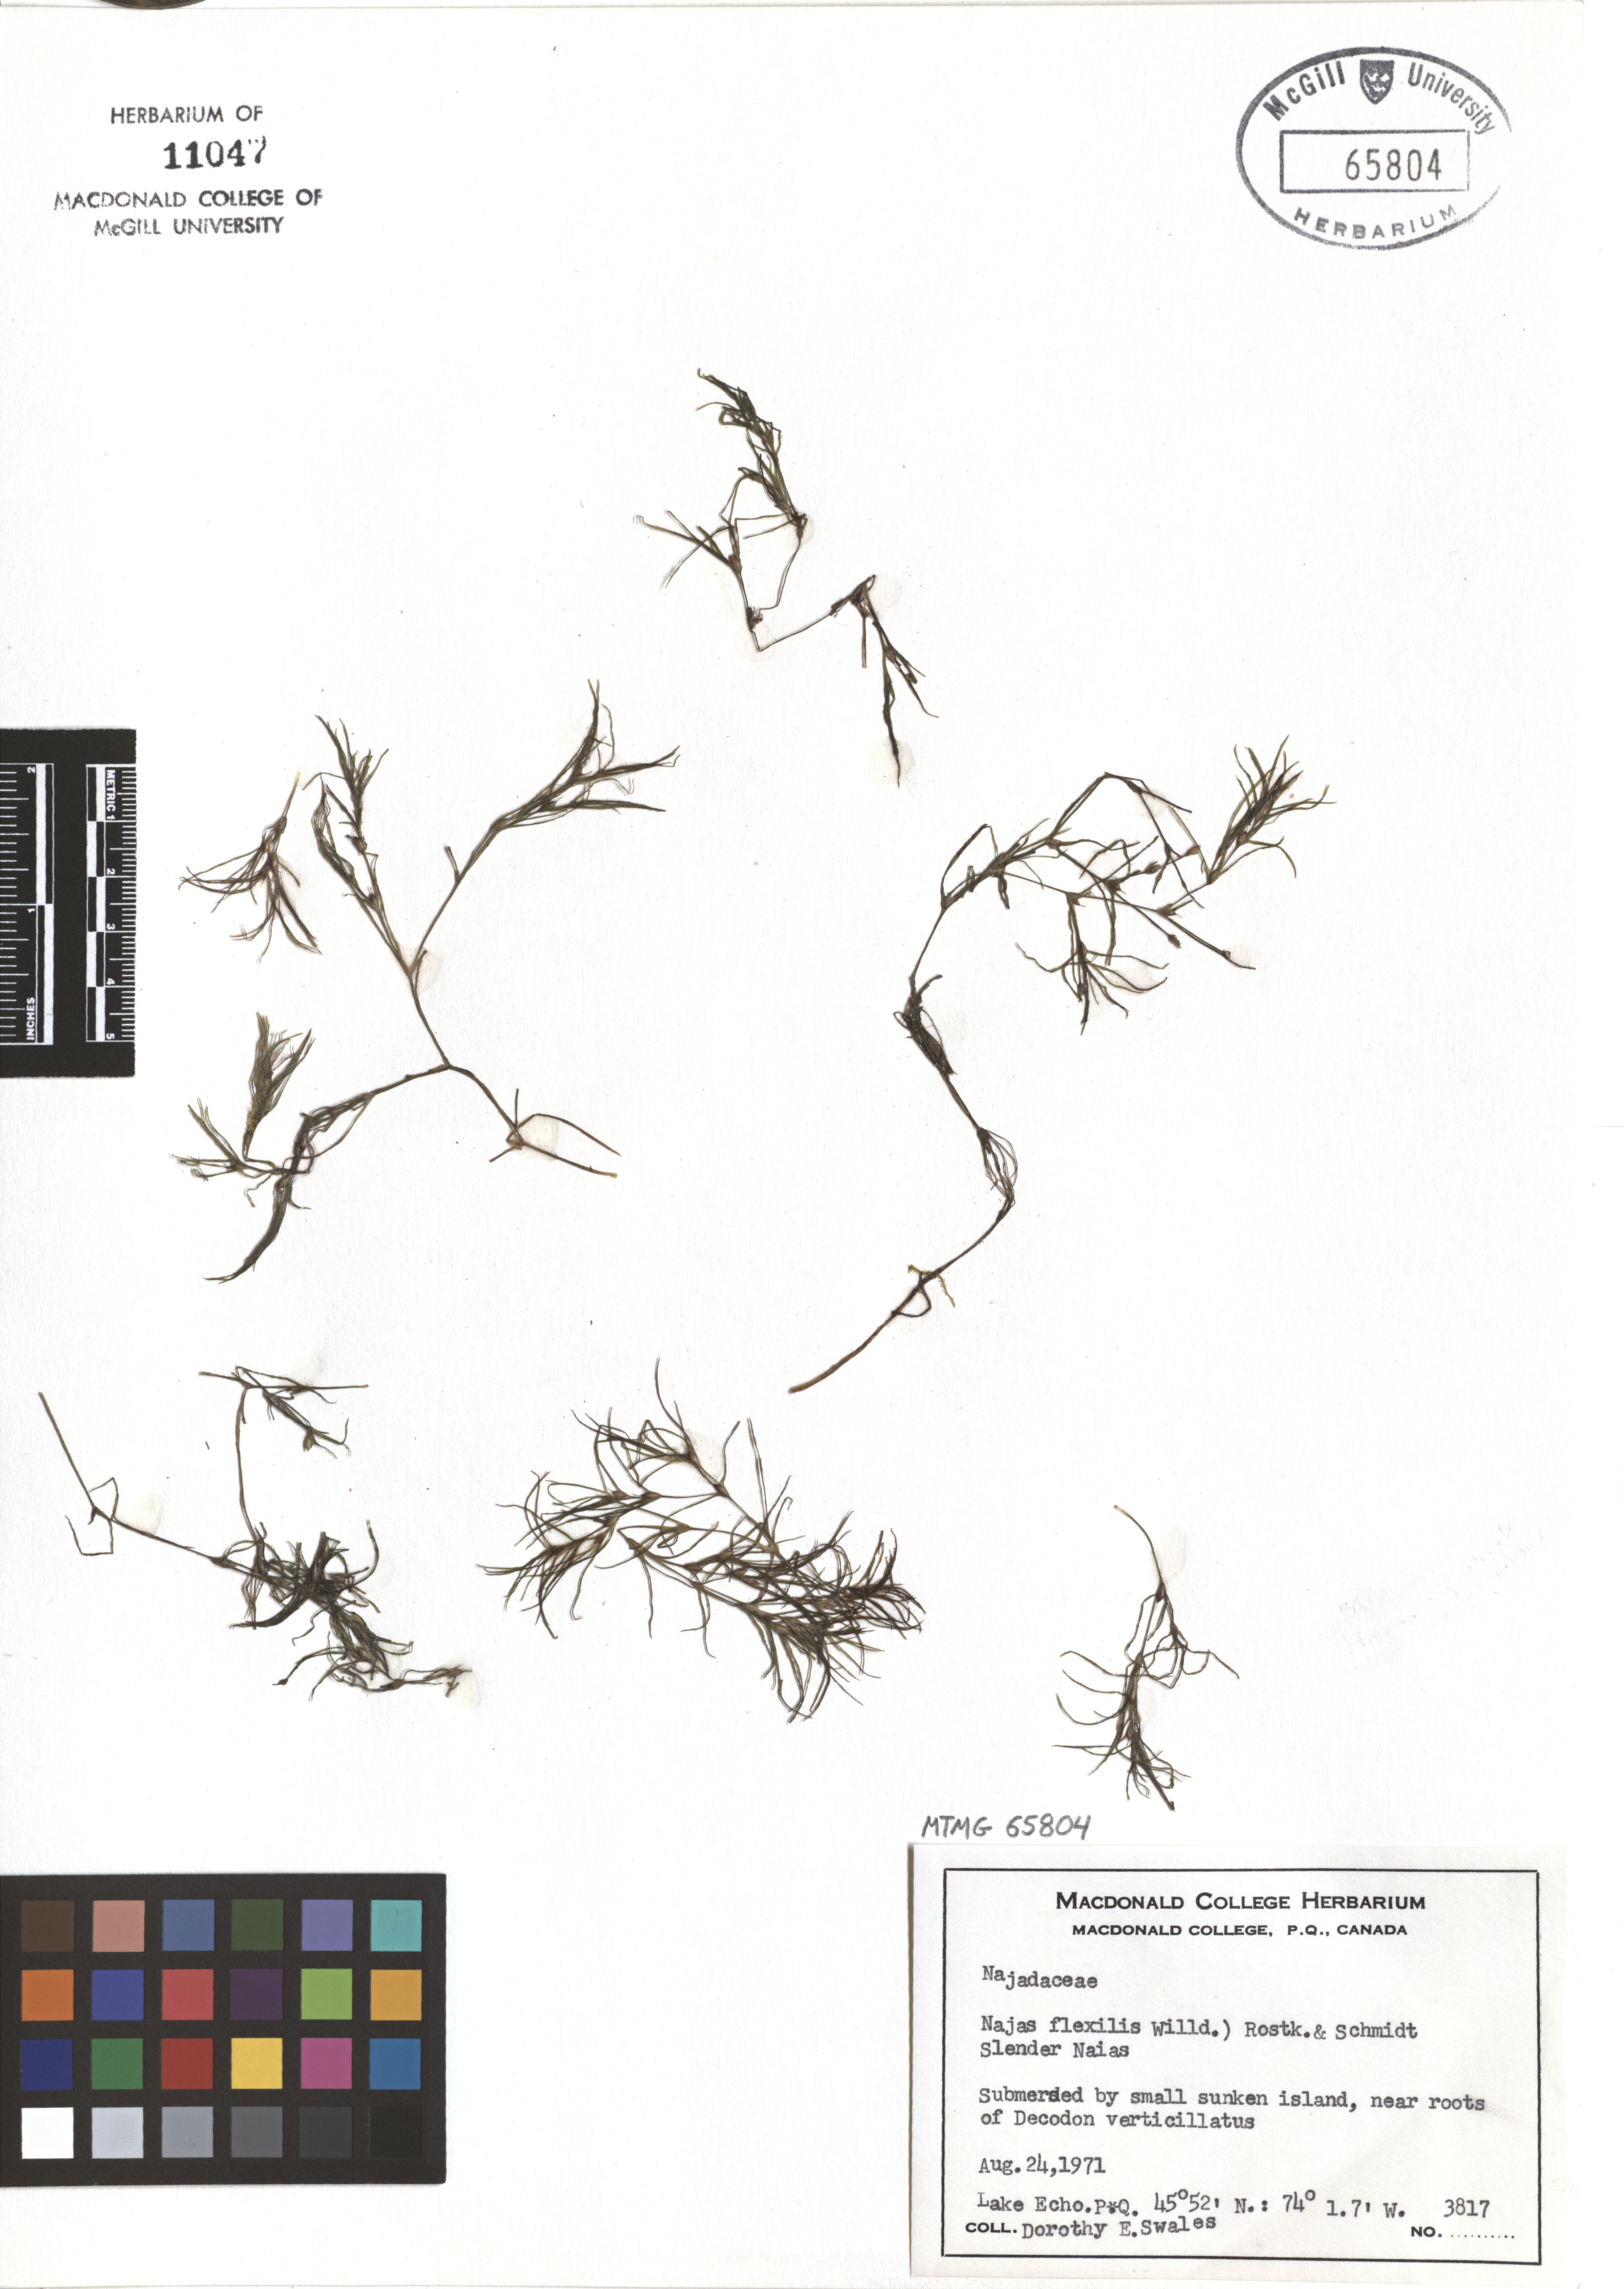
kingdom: Plantae
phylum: Tracheophyta
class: Liliopsida
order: Alismatales
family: Hydrocharitaceae
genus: Najas
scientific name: Najas guadalupensis
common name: Southern naiad
